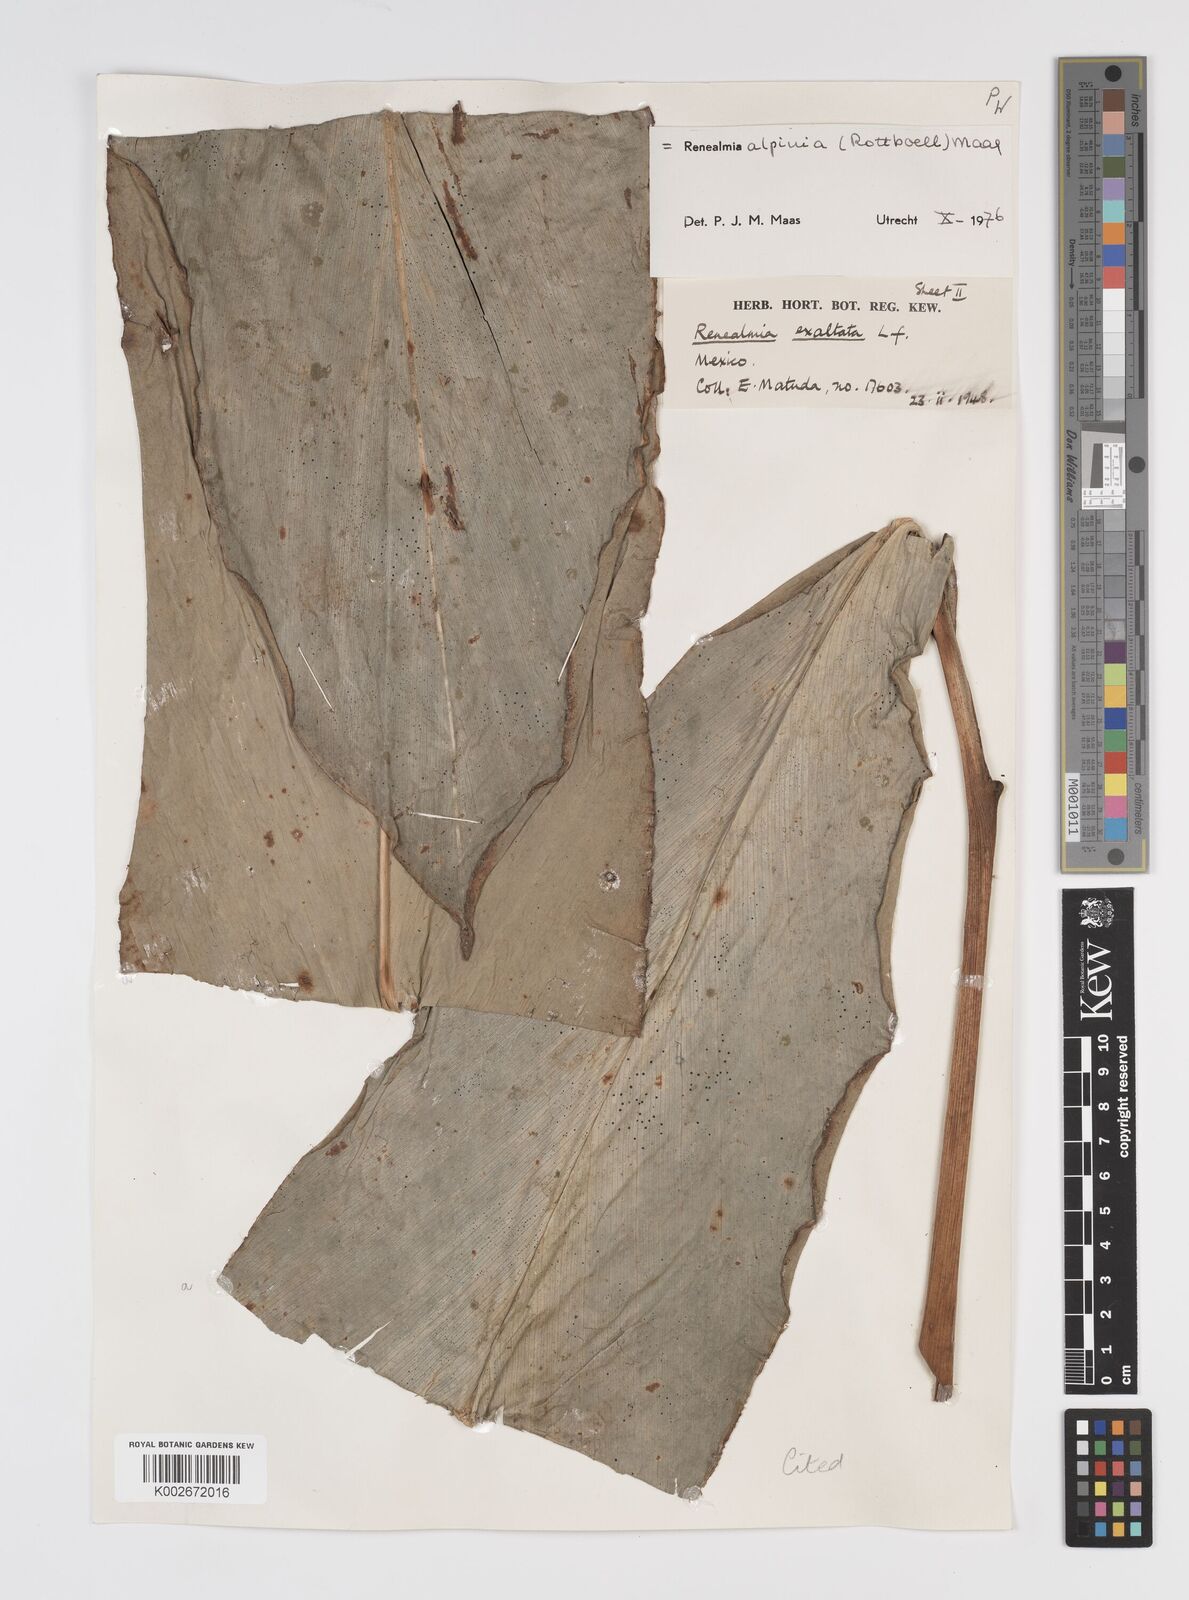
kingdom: Plantae
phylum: Tracheophyta
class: Liliopsida
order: Zingiberales
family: Zingiberaceae
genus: Renealmia
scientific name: Renealmia alpinia
